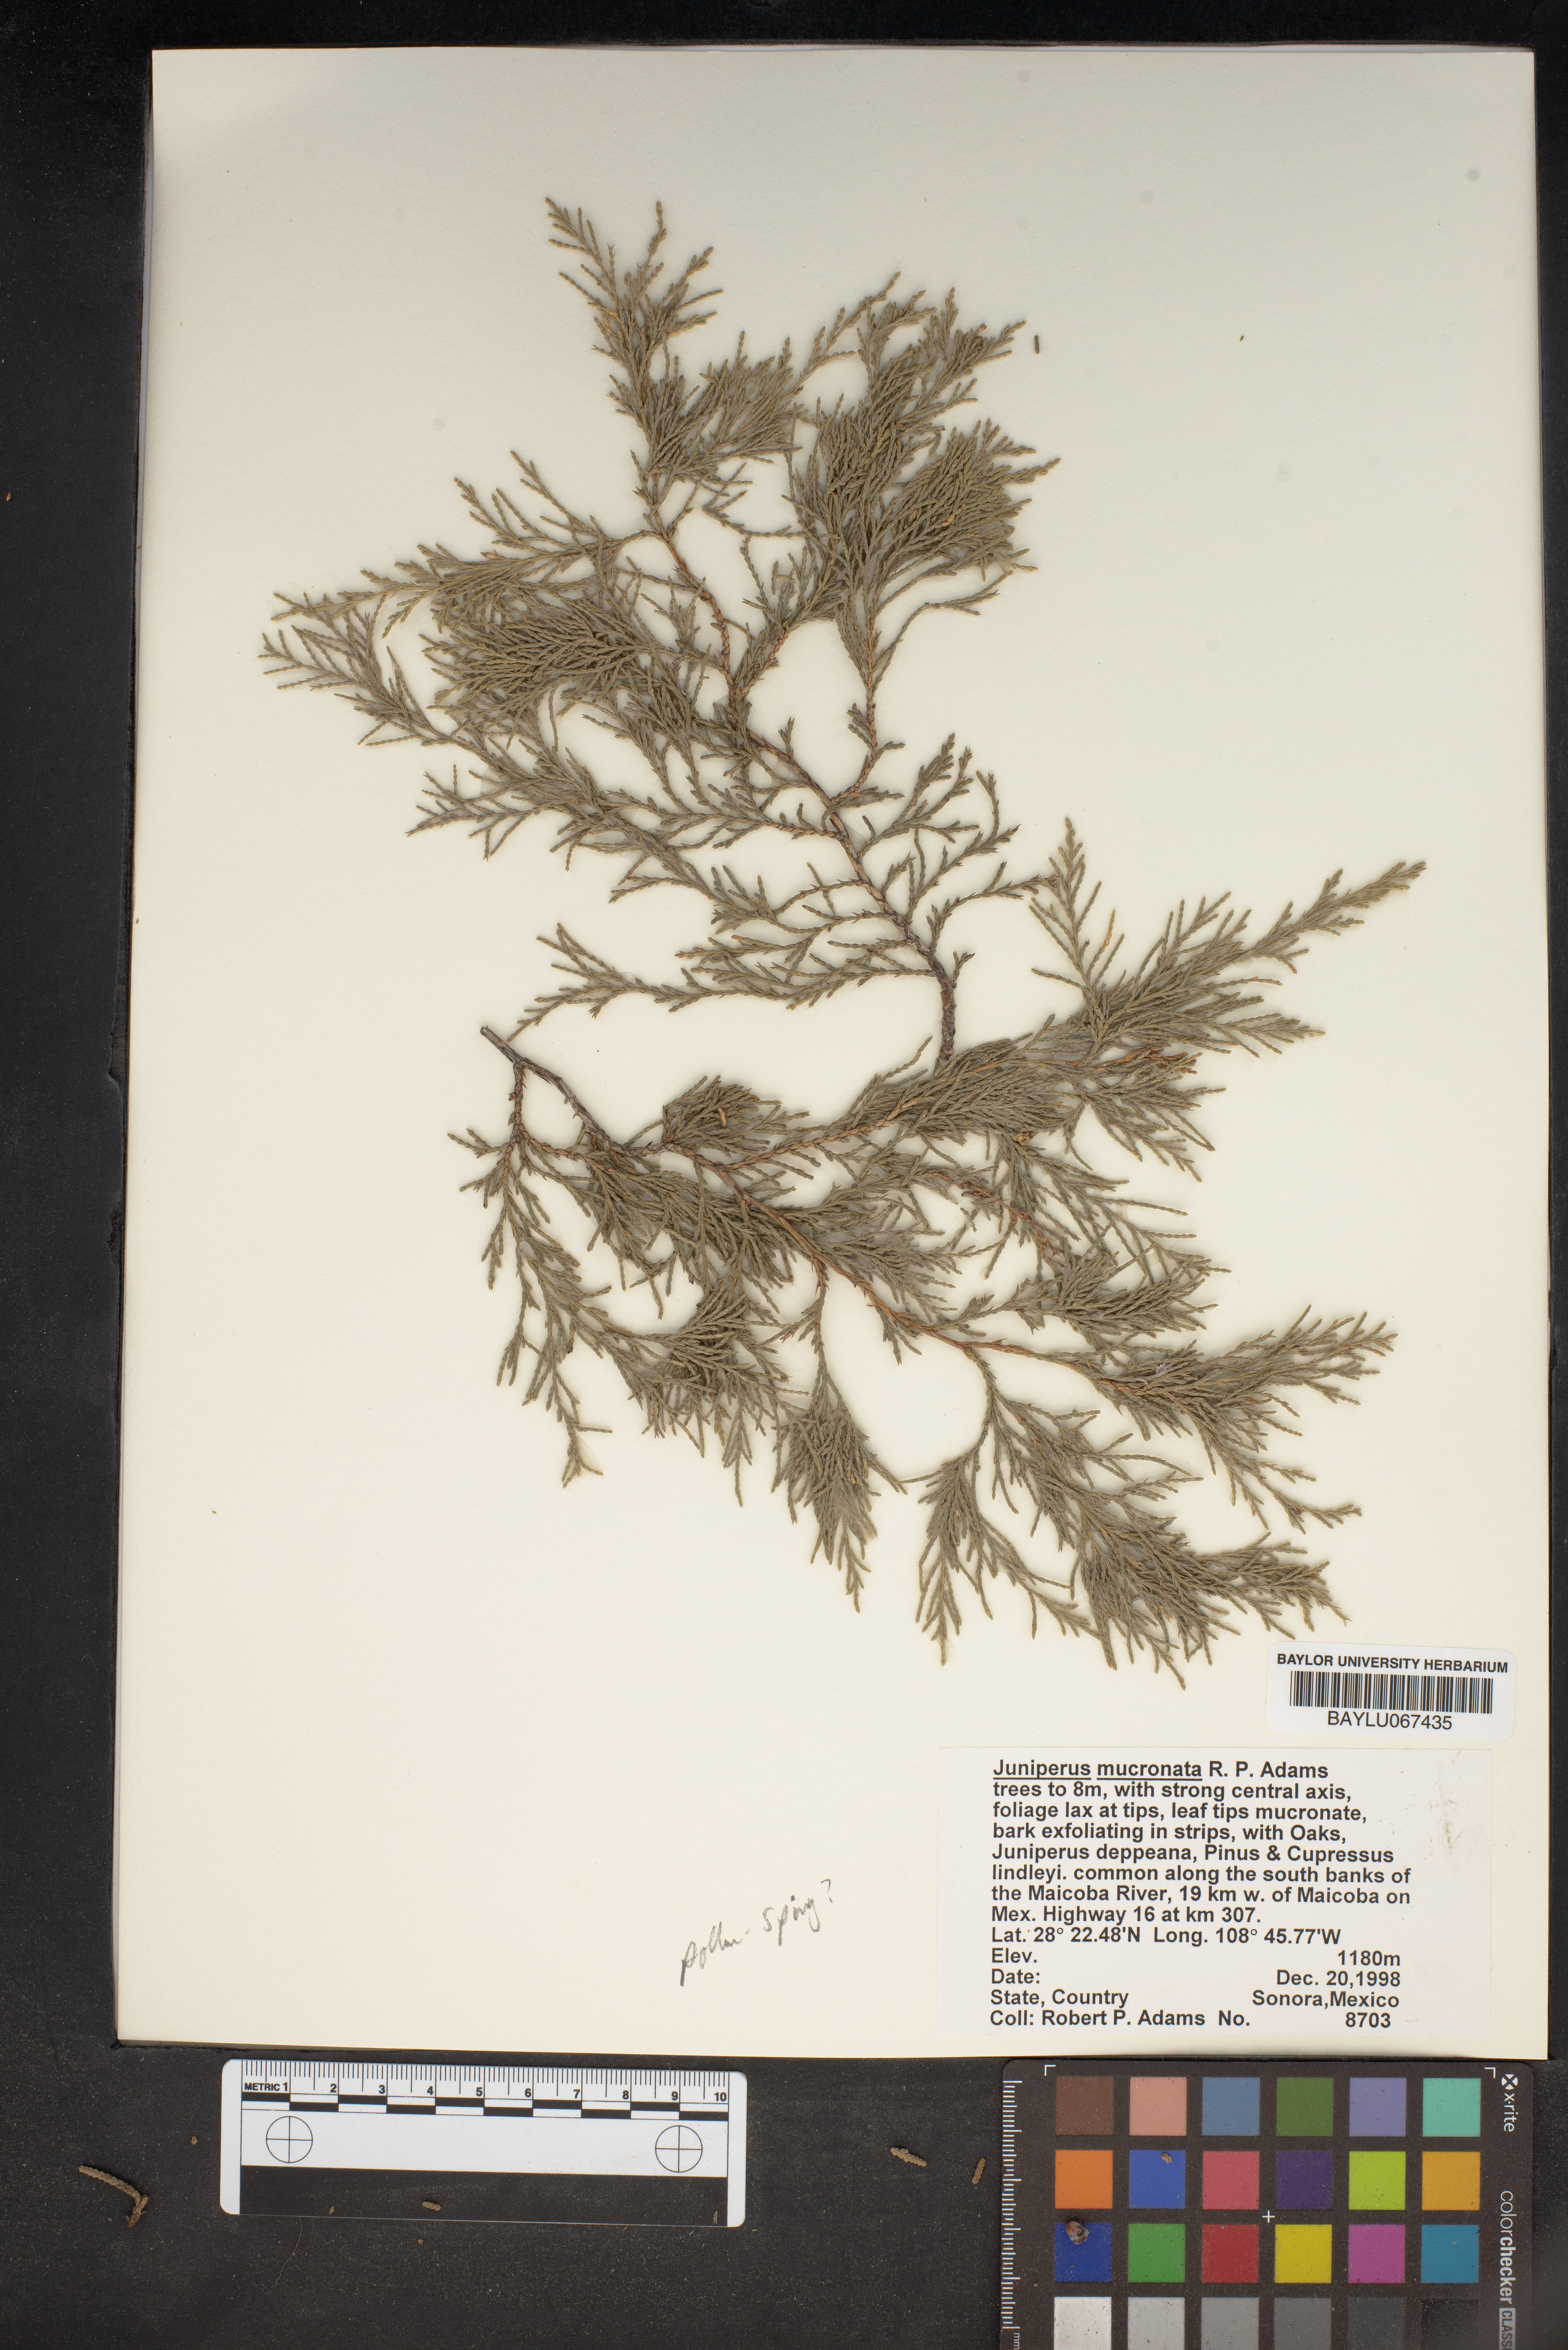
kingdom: Plantae
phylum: Tracheophyta
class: Pinopsida
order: Pinales
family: Cupressaceae
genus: Juniperus
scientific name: Juniperus blancoi
